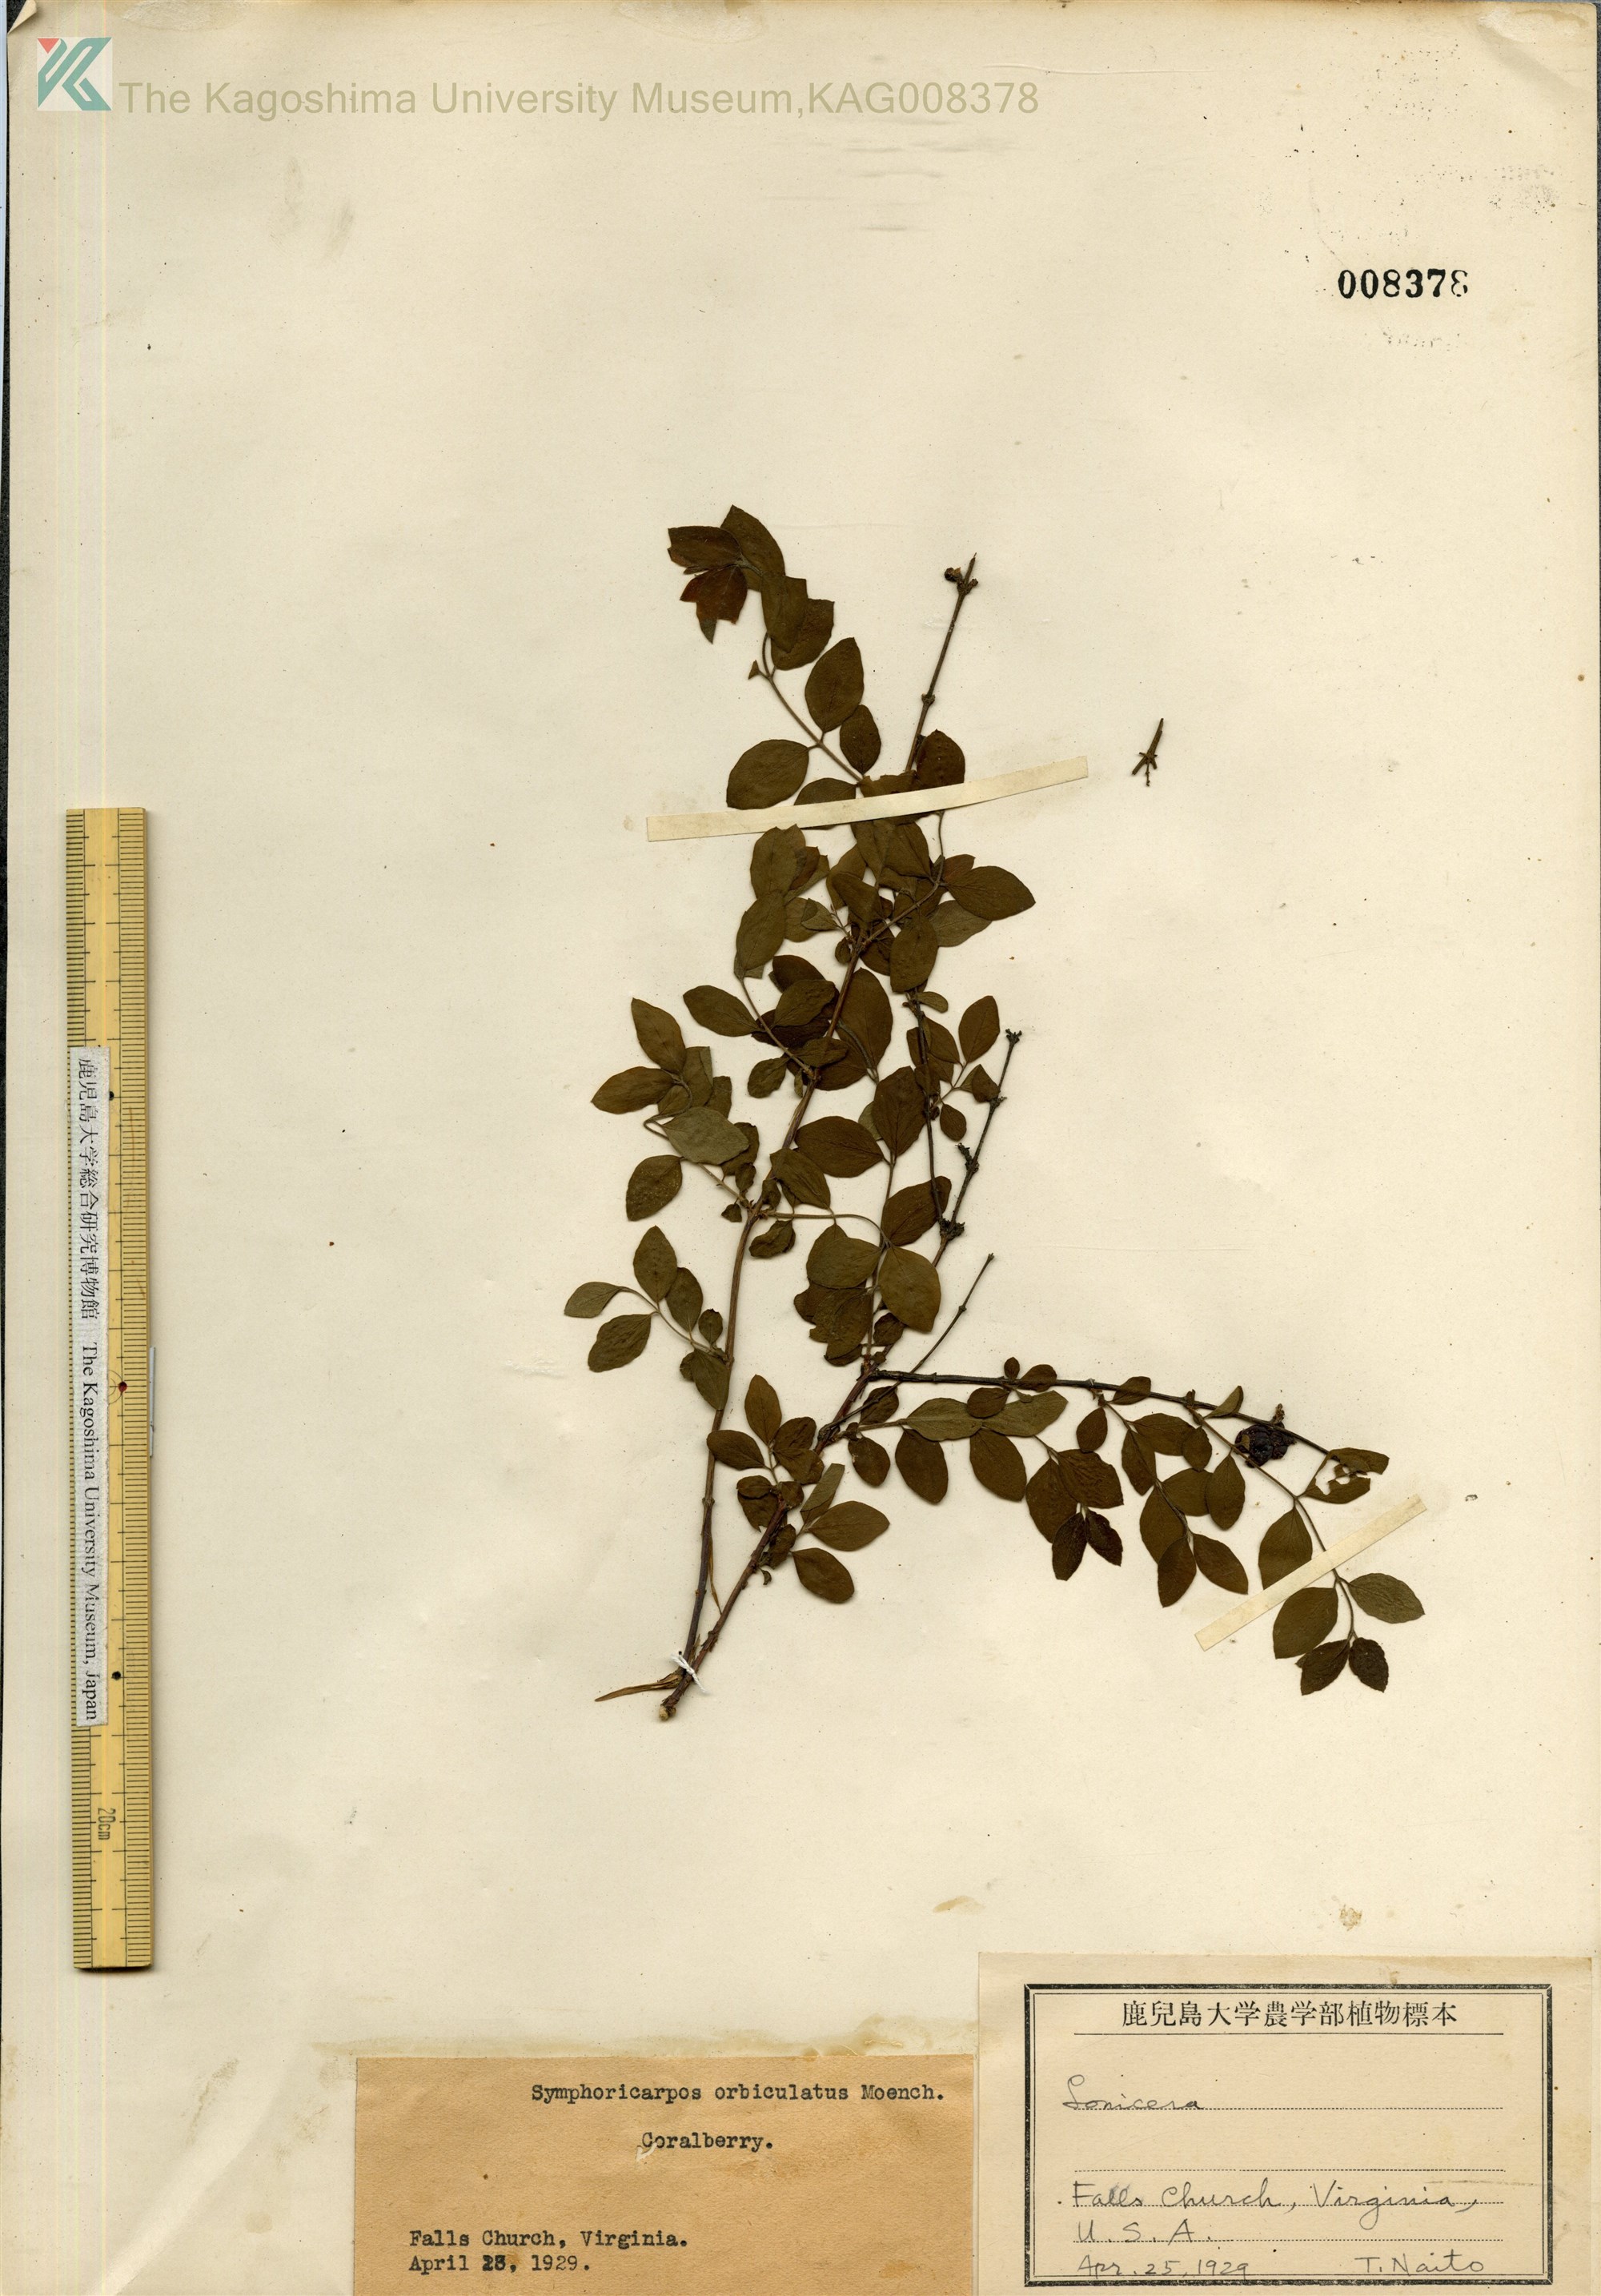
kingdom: Plantae
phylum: Tracheophyta
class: Magnoliopsida
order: Dipsacales
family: Caprifoliaceae
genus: Symphoricarpos
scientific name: Symphoricarpos chenaultii
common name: Hybrid coralberry
